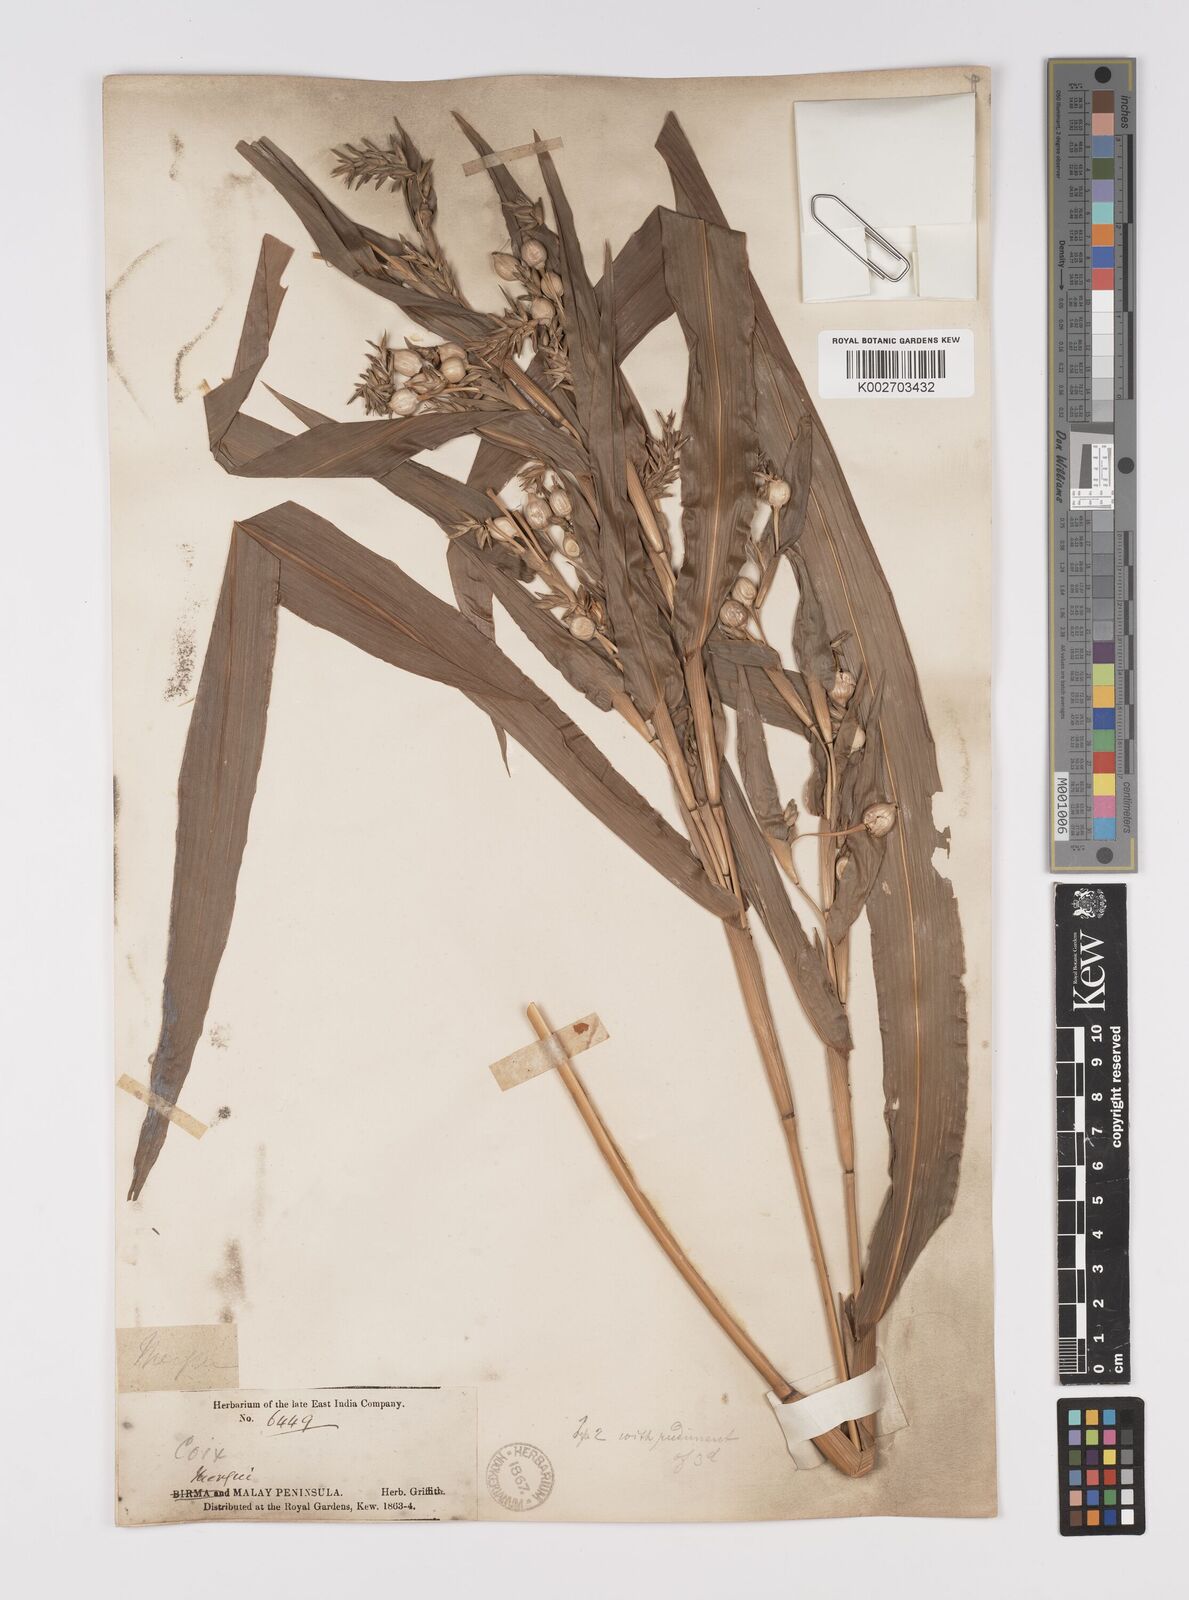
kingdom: Plantae
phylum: Tracheophyta
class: Liliopsida
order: Poales
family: Poaceae
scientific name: Poaceae
